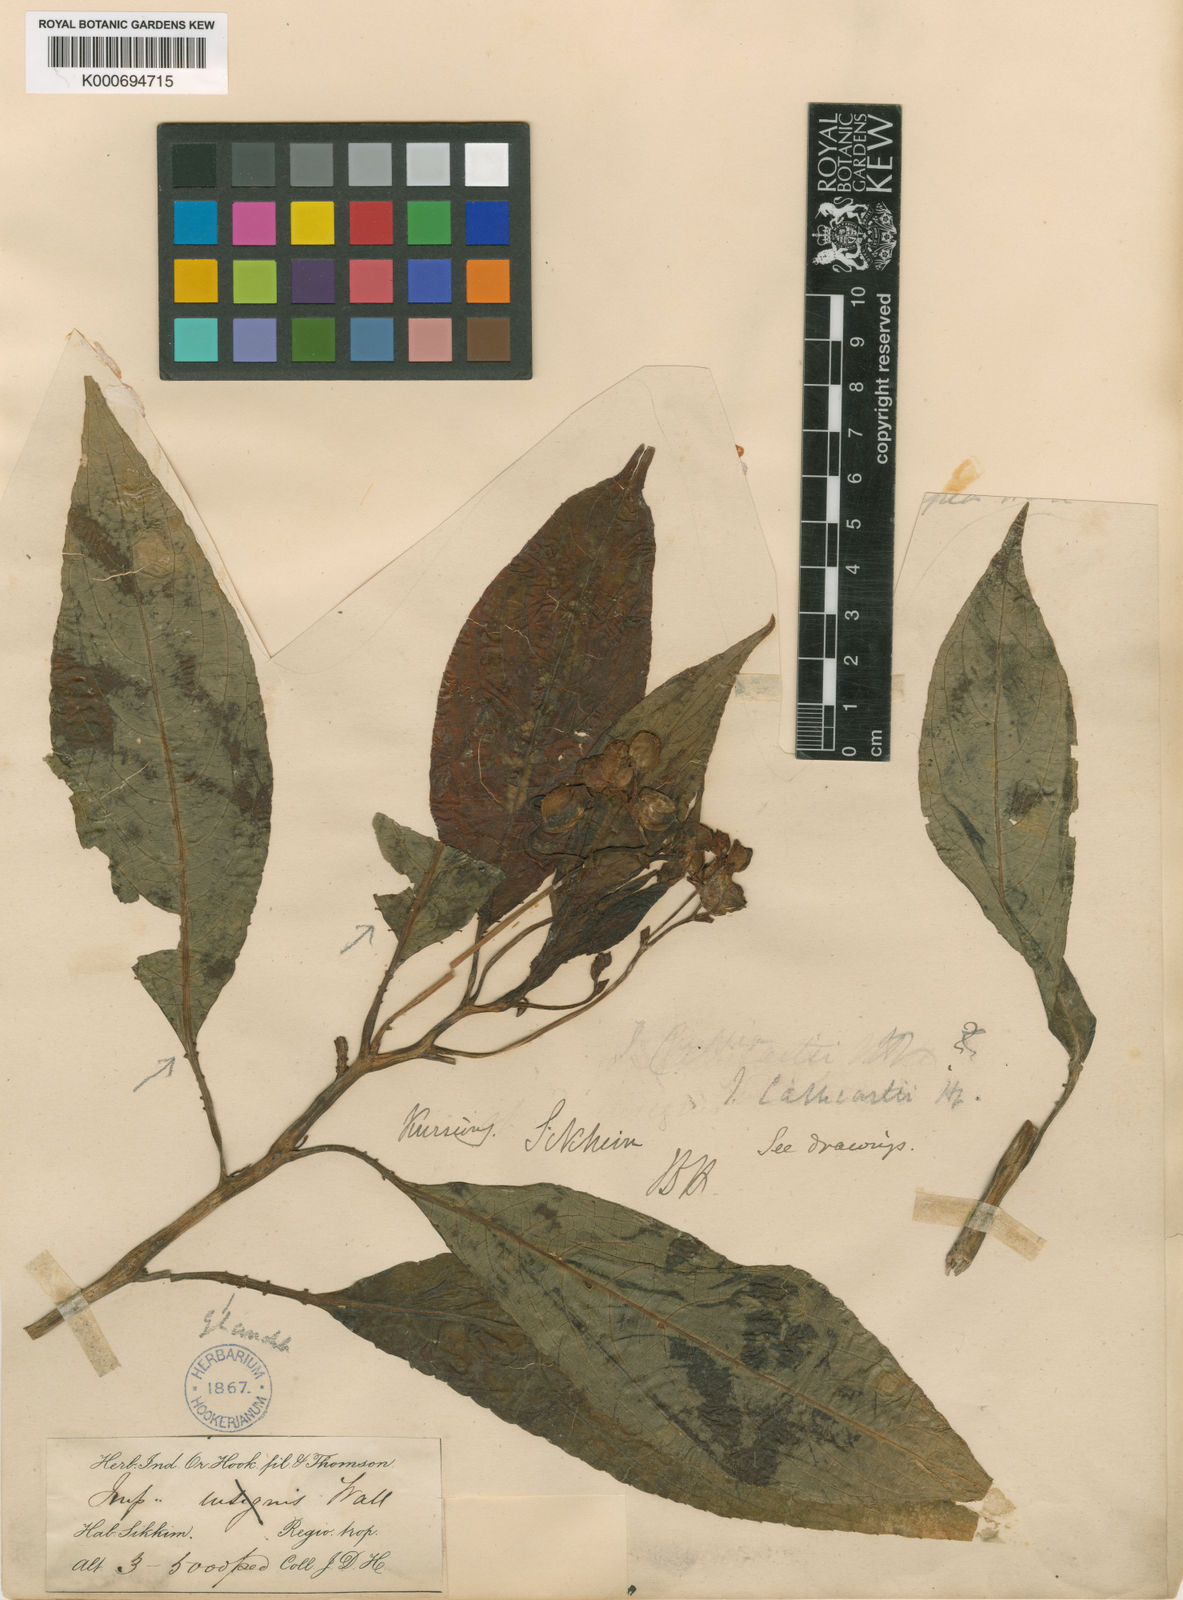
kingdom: Plantae
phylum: Tracheophyta
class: Magnoliopsida
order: Ericales
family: Balsaminaceae
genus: Impatiens
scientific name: Impatiens cathcartii
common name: J. f. cathcart's balsam
